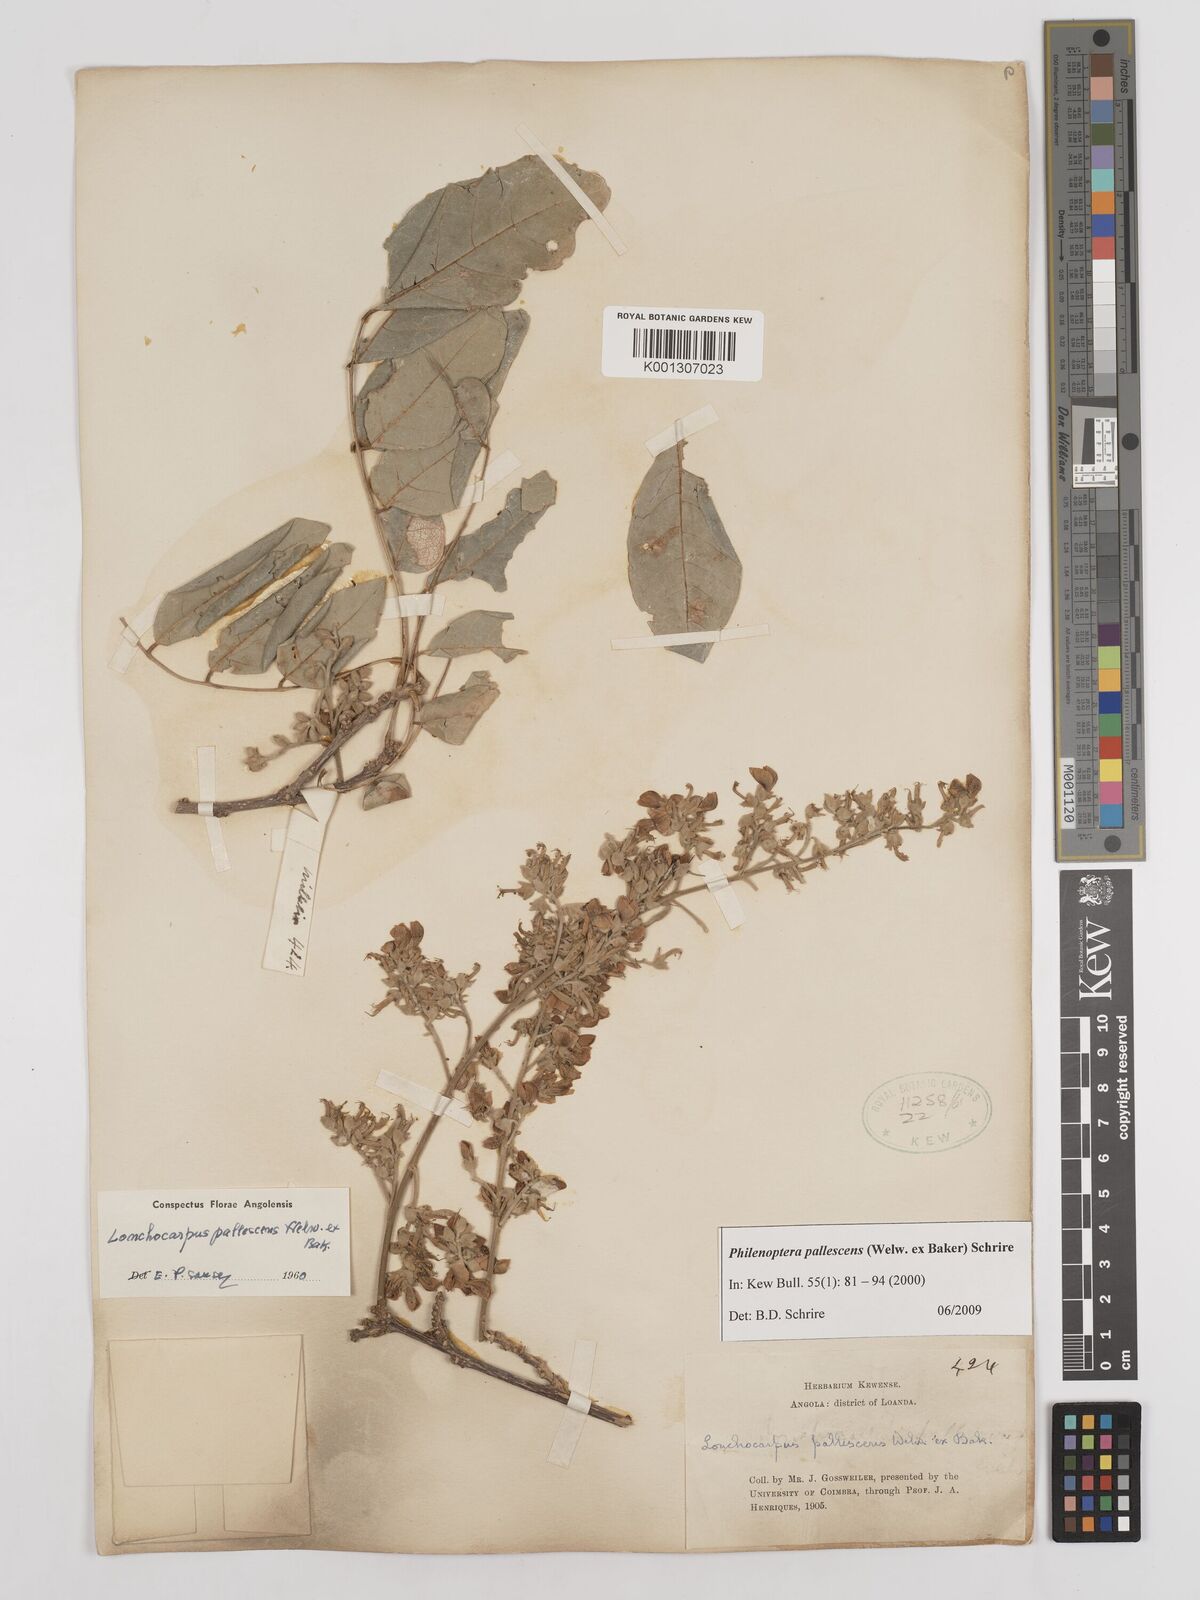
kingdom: Plantae
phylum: Tracheophyta
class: Magnoliopsida
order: Fabales
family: Fabaceae
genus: Philenoptera
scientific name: Philenoptera pallescens
